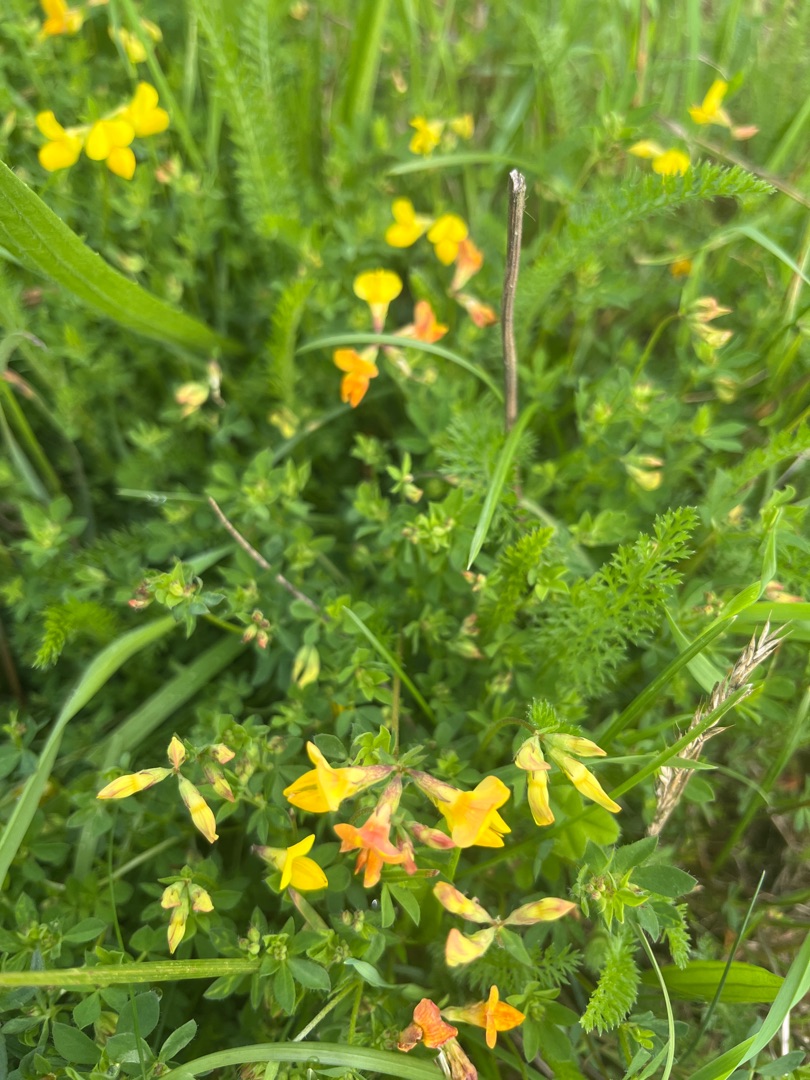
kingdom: Plantae
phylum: Tracheophyta
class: Magnoliopsida
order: Fabales
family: Fabaceae
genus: Lotus
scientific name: Lotus corniculatus
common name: Almindelig kællingetand
